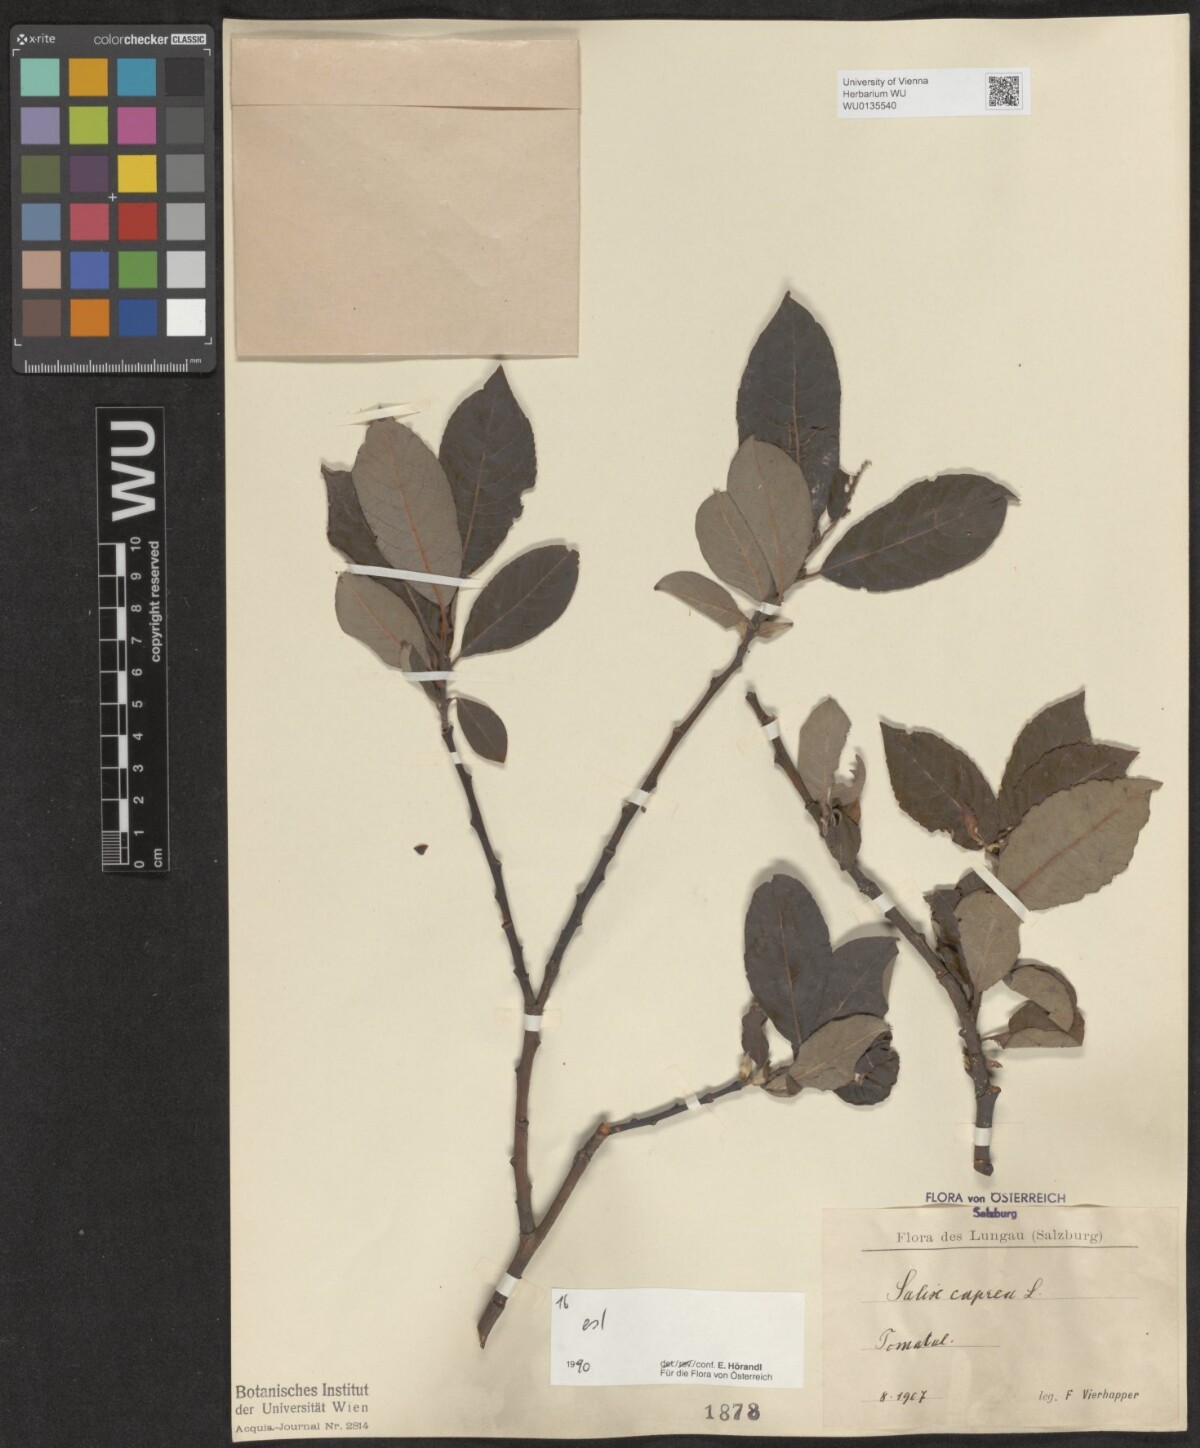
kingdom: Plantae
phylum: Tracheophyta
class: Magnoliopsida
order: Malpighiales
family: Salicaceae
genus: Salix
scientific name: Salix caprea
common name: Goat willow
